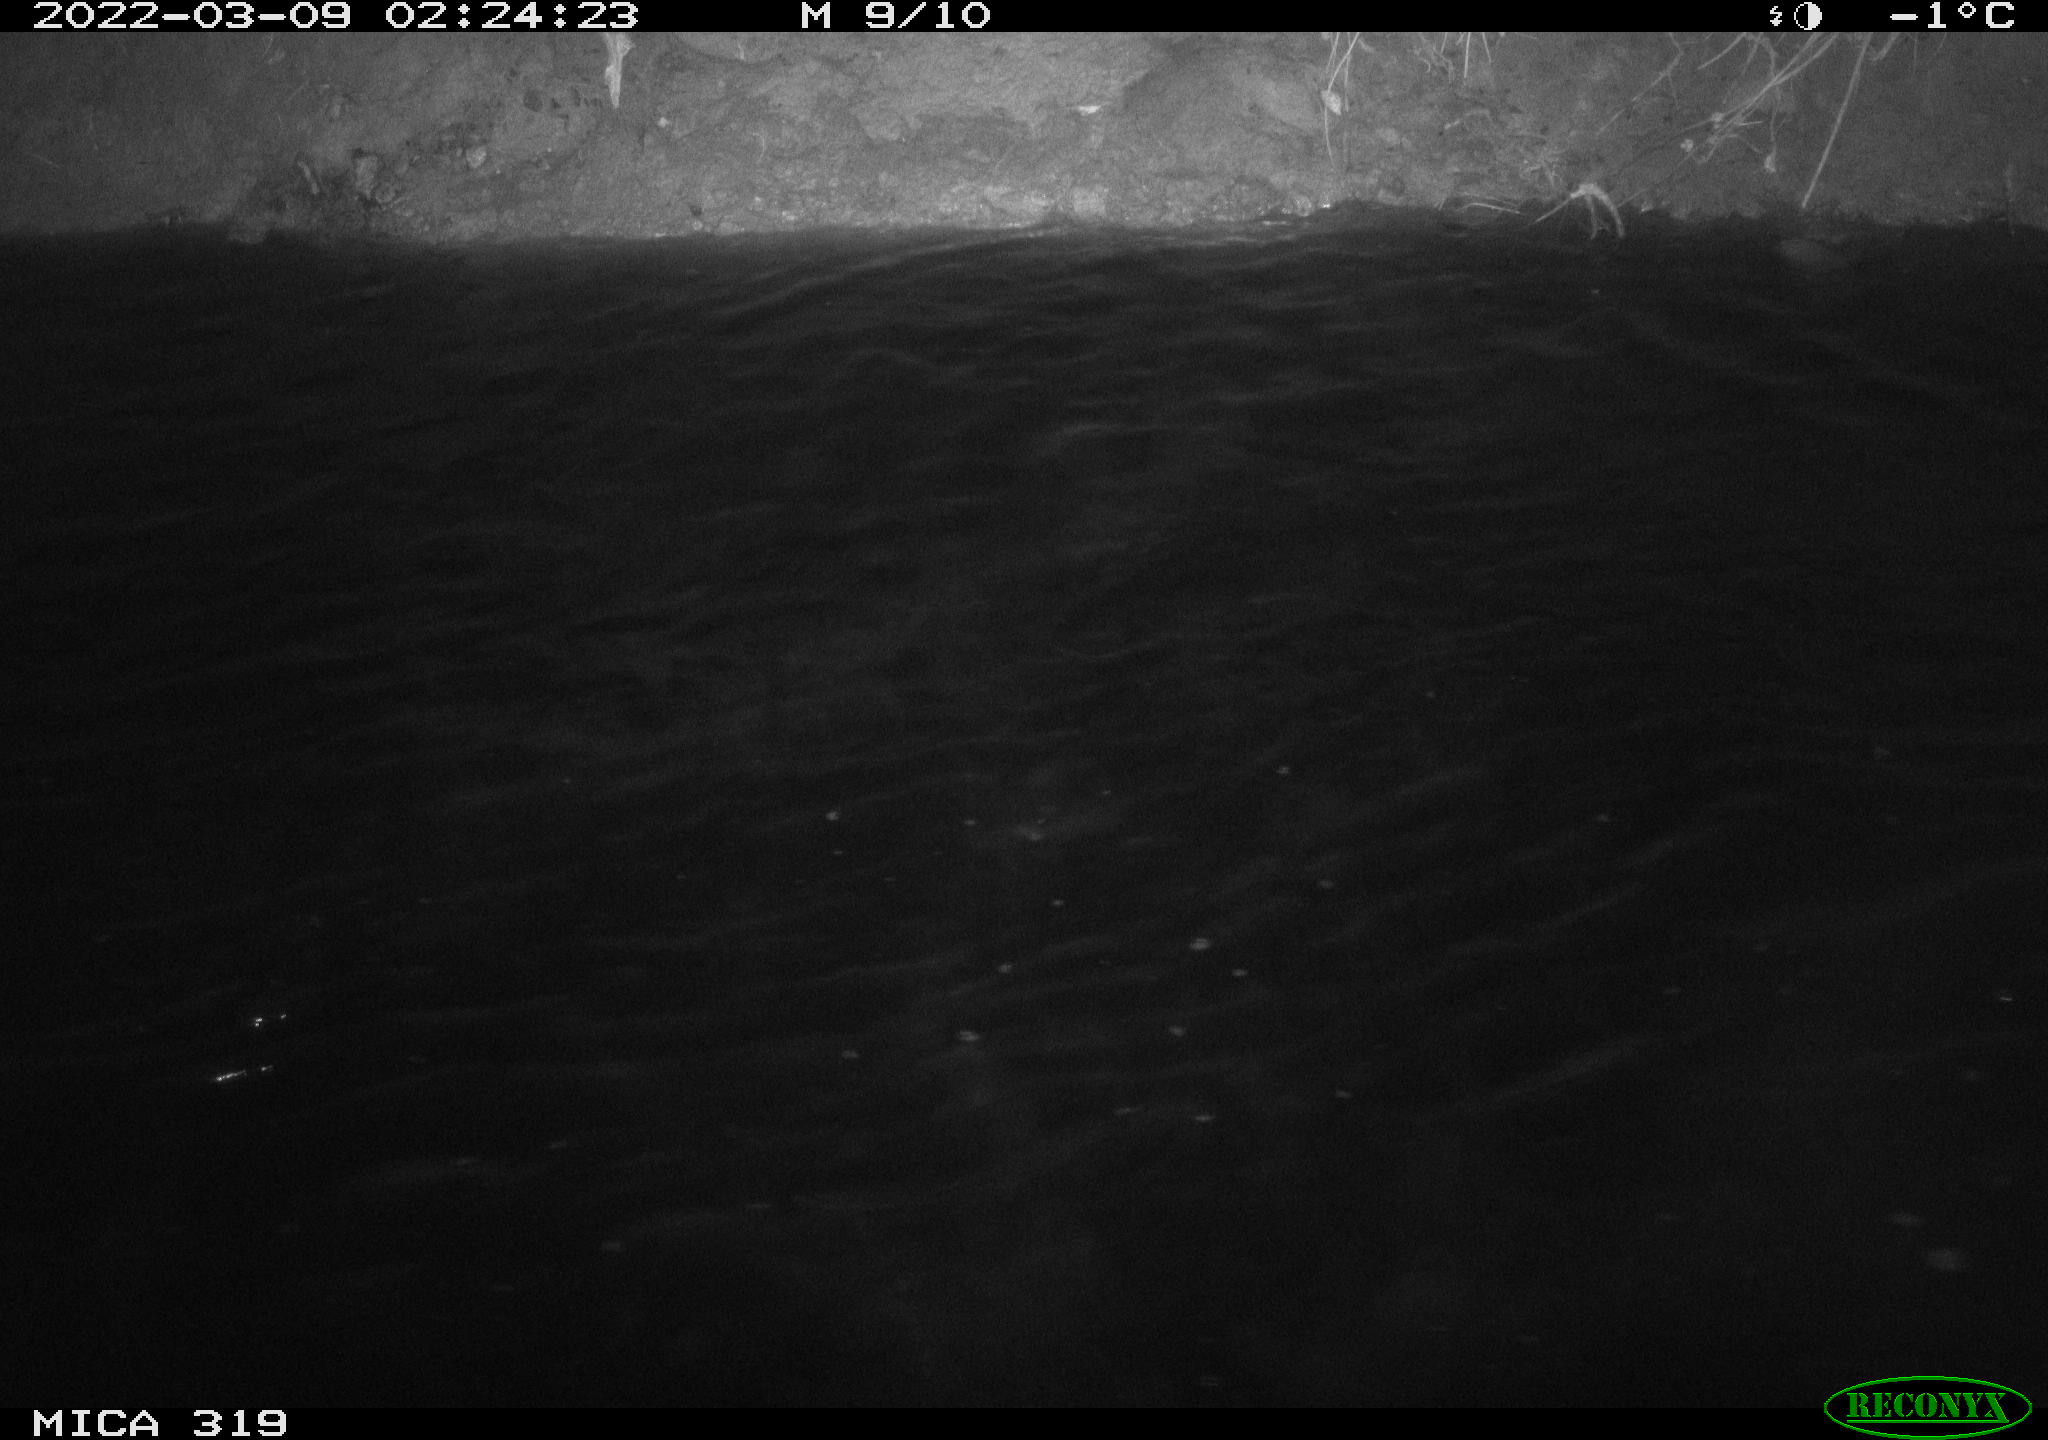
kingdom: Animalia
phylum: Chordata
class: Aves
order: Anseriformes
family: Anatidae
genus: Anas
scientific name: Anas platyrhynchos
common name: Mallard
